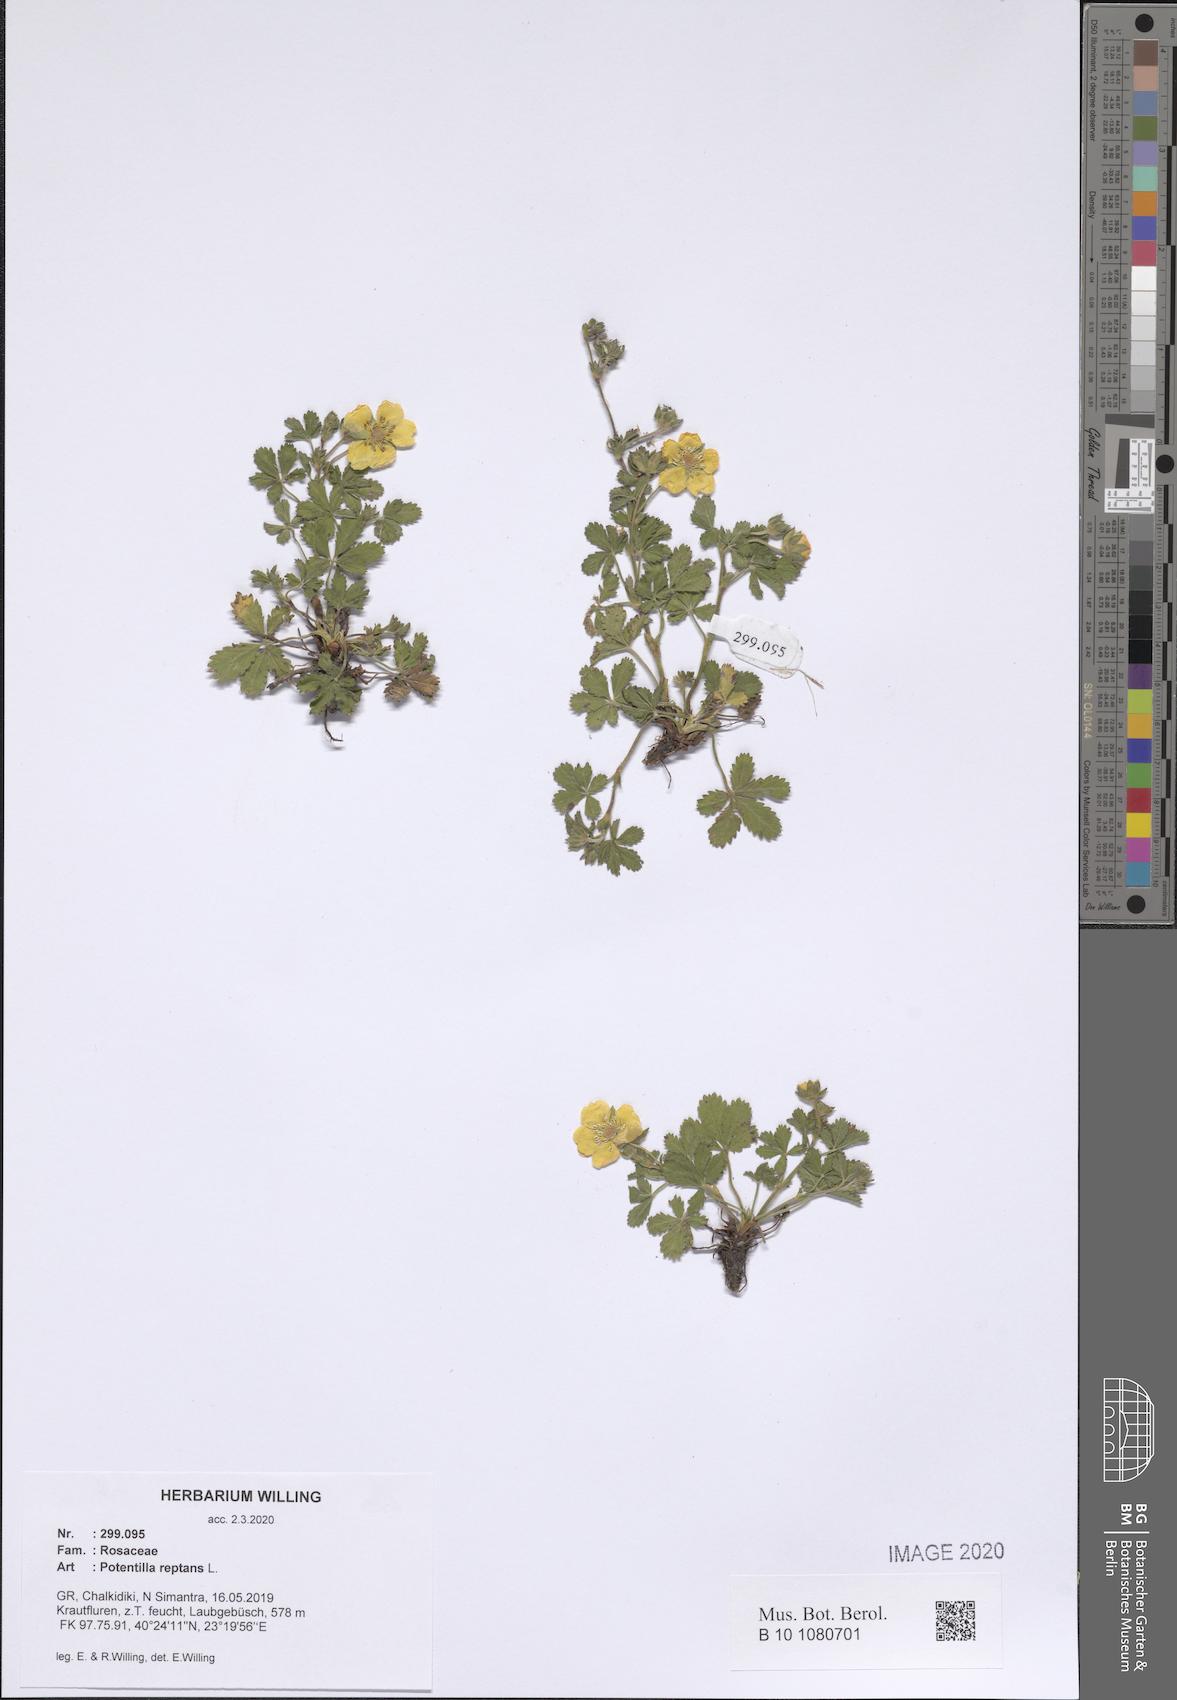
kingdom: Plantae
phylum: Tracheophyta
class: Magnoliopsida
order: Rosales
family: Rosaceae
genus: Potentilla
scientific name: Potentilla reptans
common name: Creeping cinquefoil
